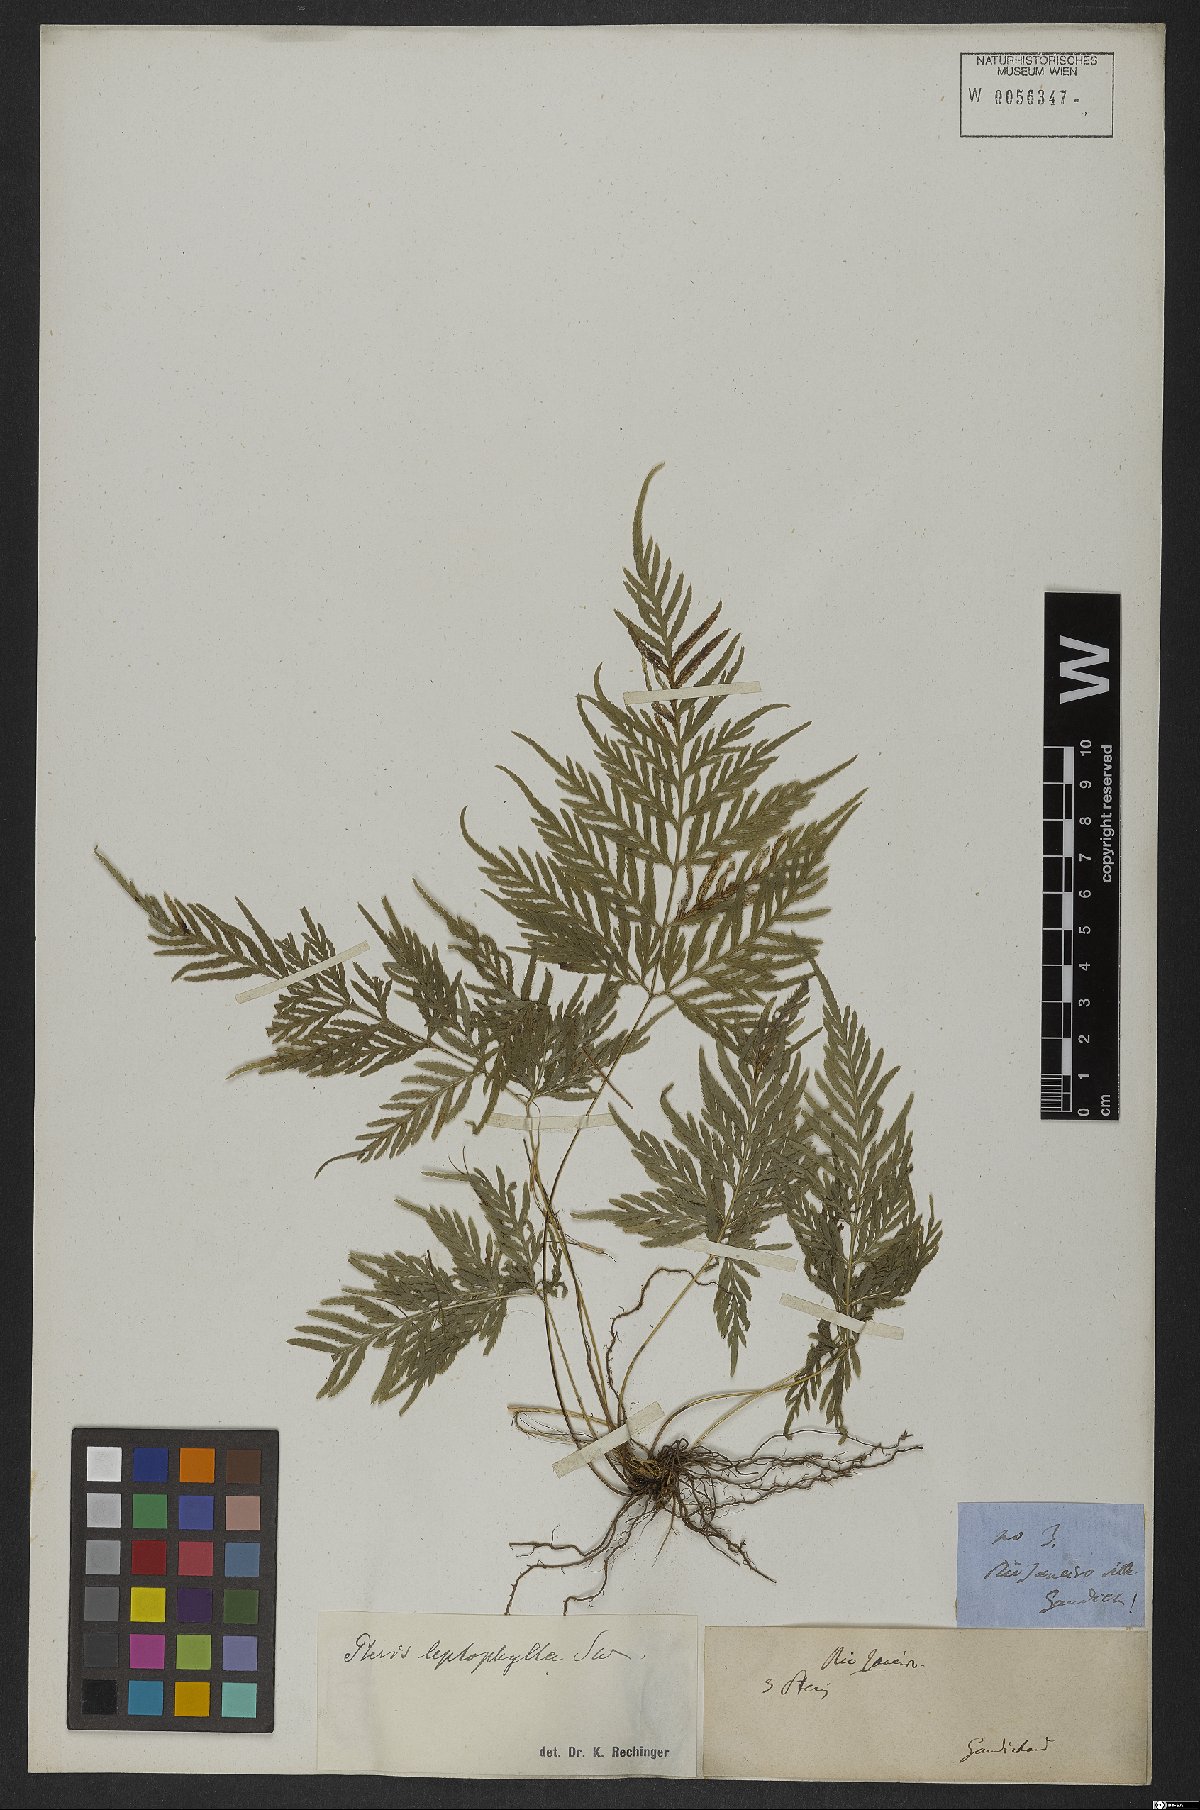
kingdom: Plantae
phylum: Tracheophyta
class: Polypodiopsida
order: Polypodiales
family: Pteridaceae
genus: Pteris
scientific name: Pteris leptophylla
